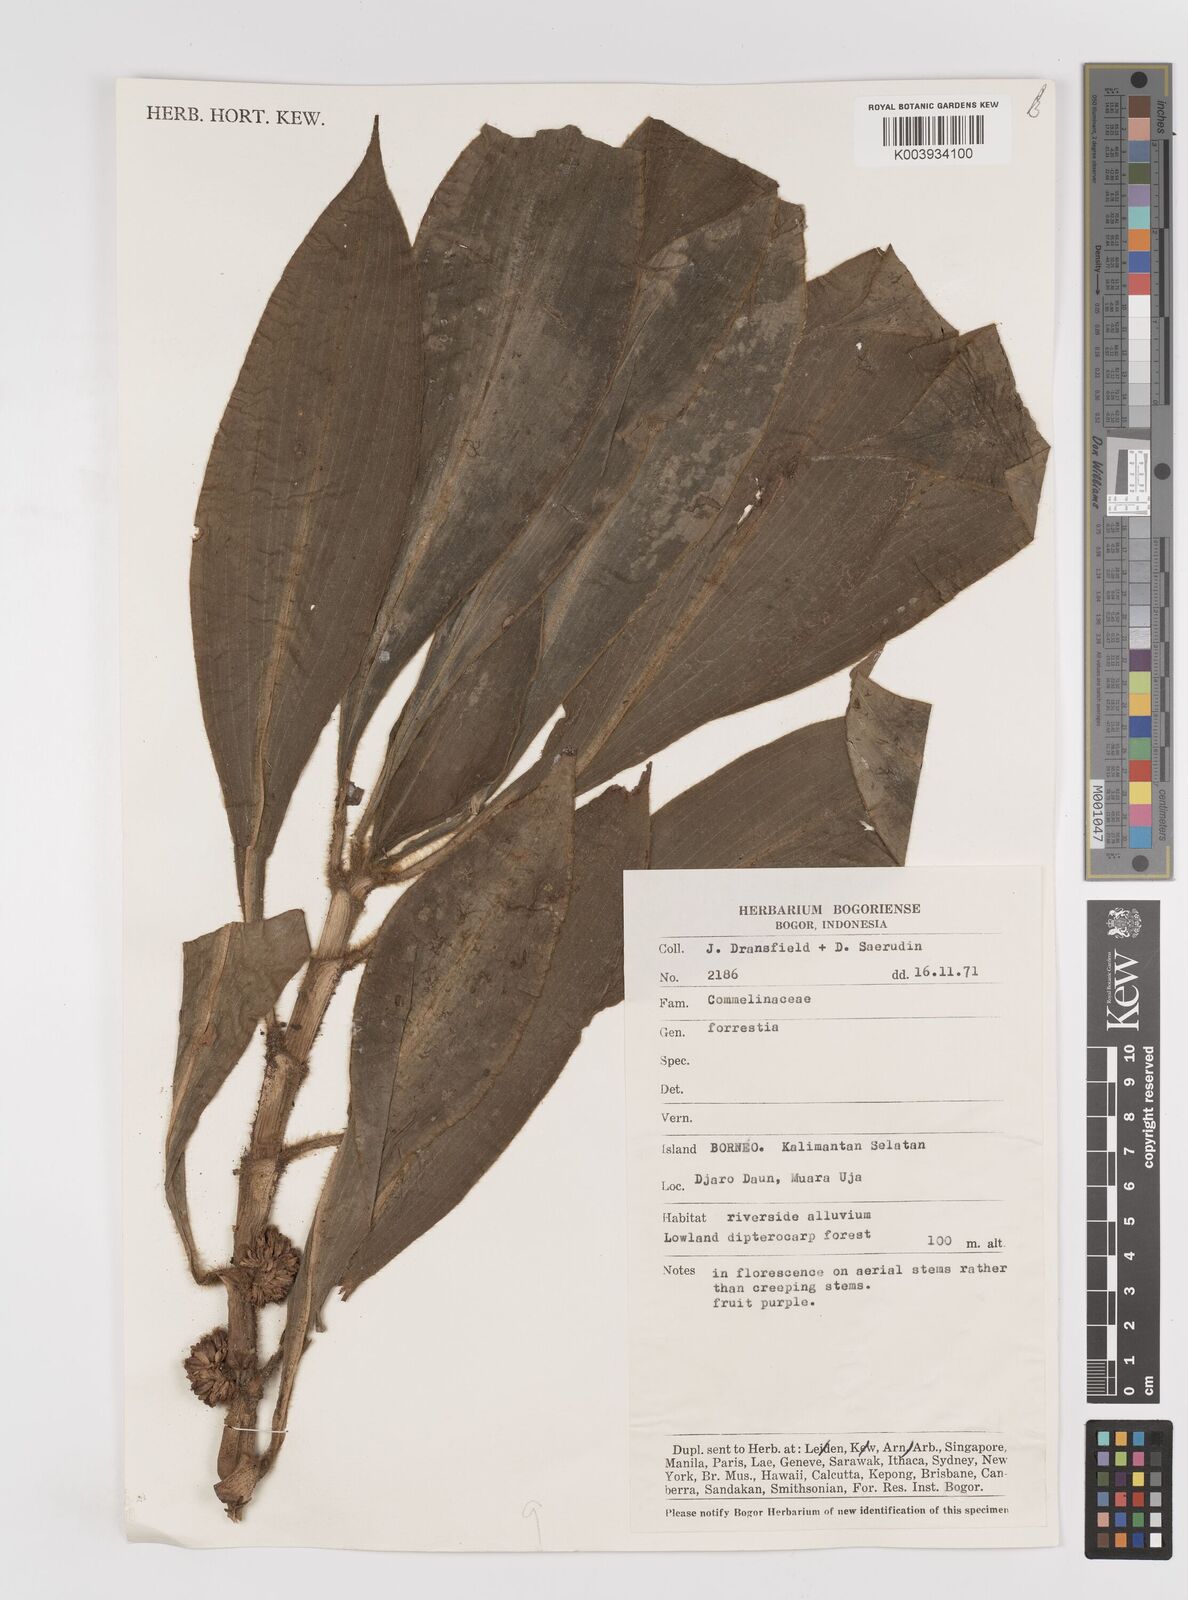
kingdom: Plantae
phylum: Tracheophyta
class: Liliopsida
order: Commelinales
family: Commelinaceae
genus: Amischotolype
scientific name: Amischotolype
